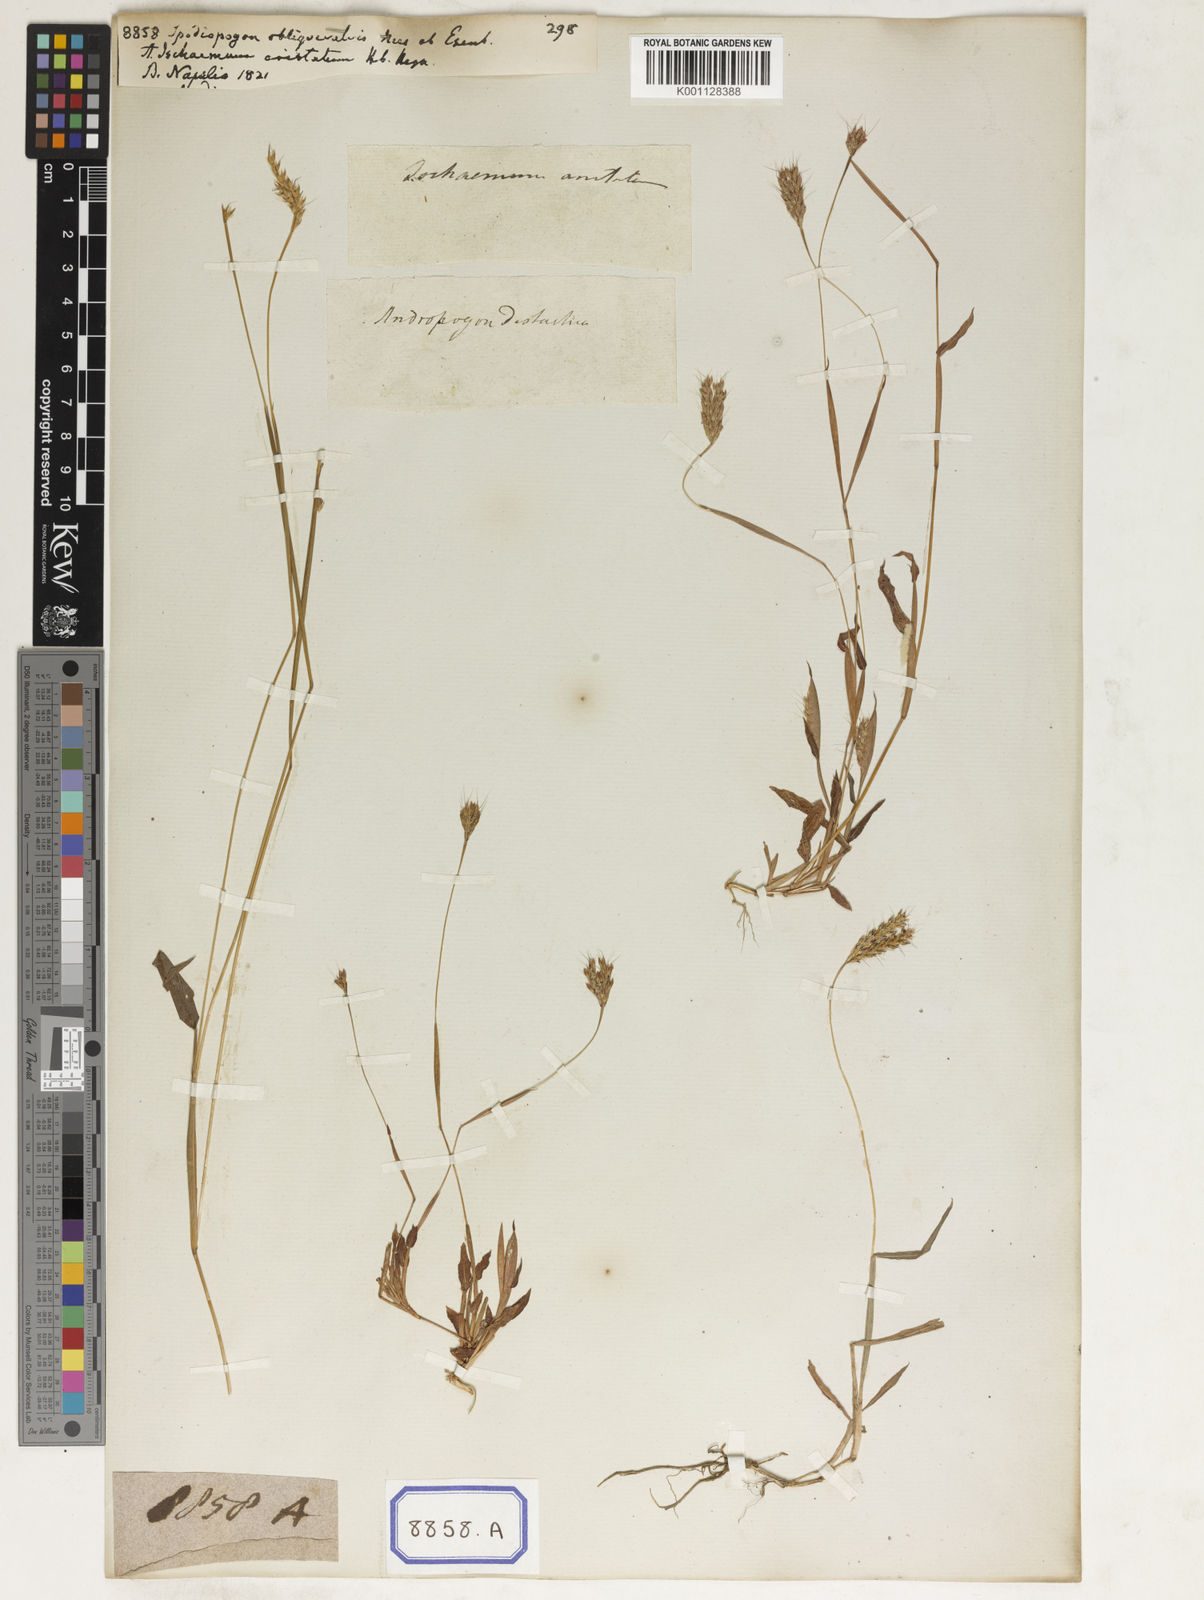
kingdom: Plantae
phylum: Tracheophyta
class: Liliopsida
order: Poales
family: Poaceae
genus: Ischaemum
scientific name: Ischaemum ciliare
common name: Grass
